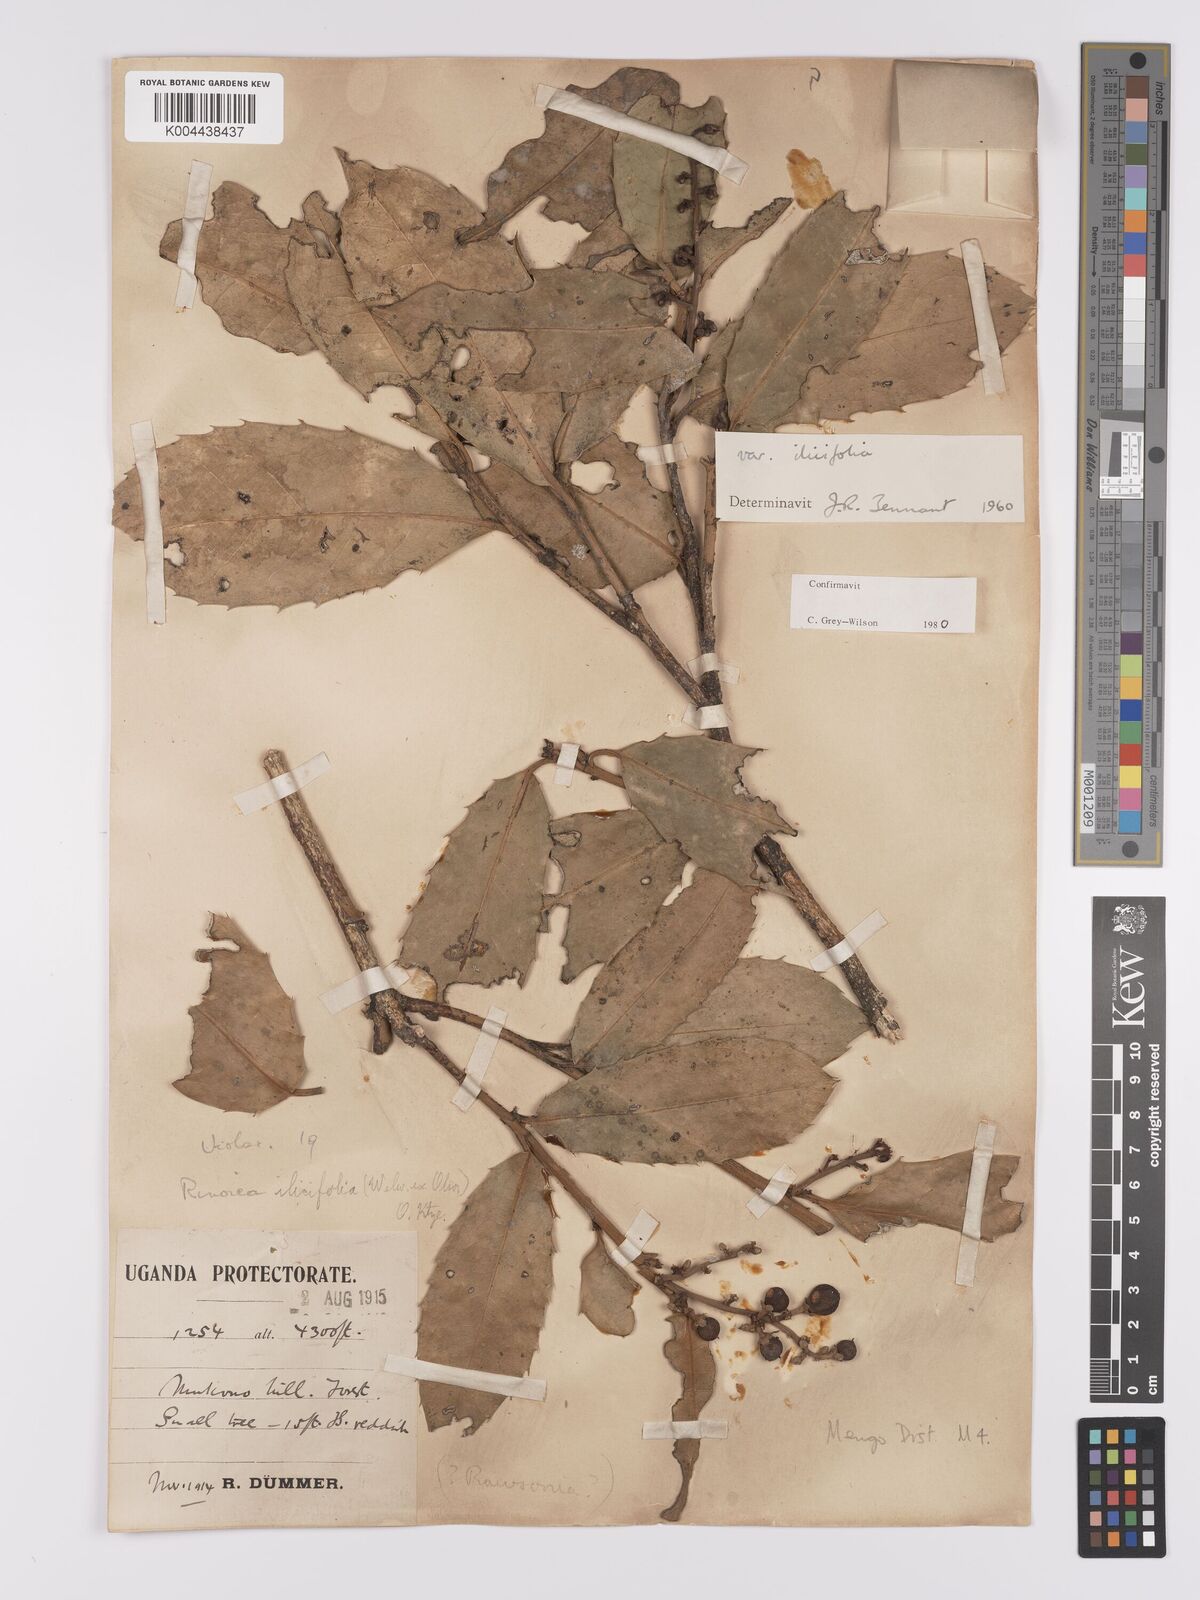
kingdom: Plantae
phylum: Tracheophyta
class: Magnoliopsida
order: Malpighiales
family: Violaceae
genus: Rinorea
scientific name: Rinorea ilicifolia
